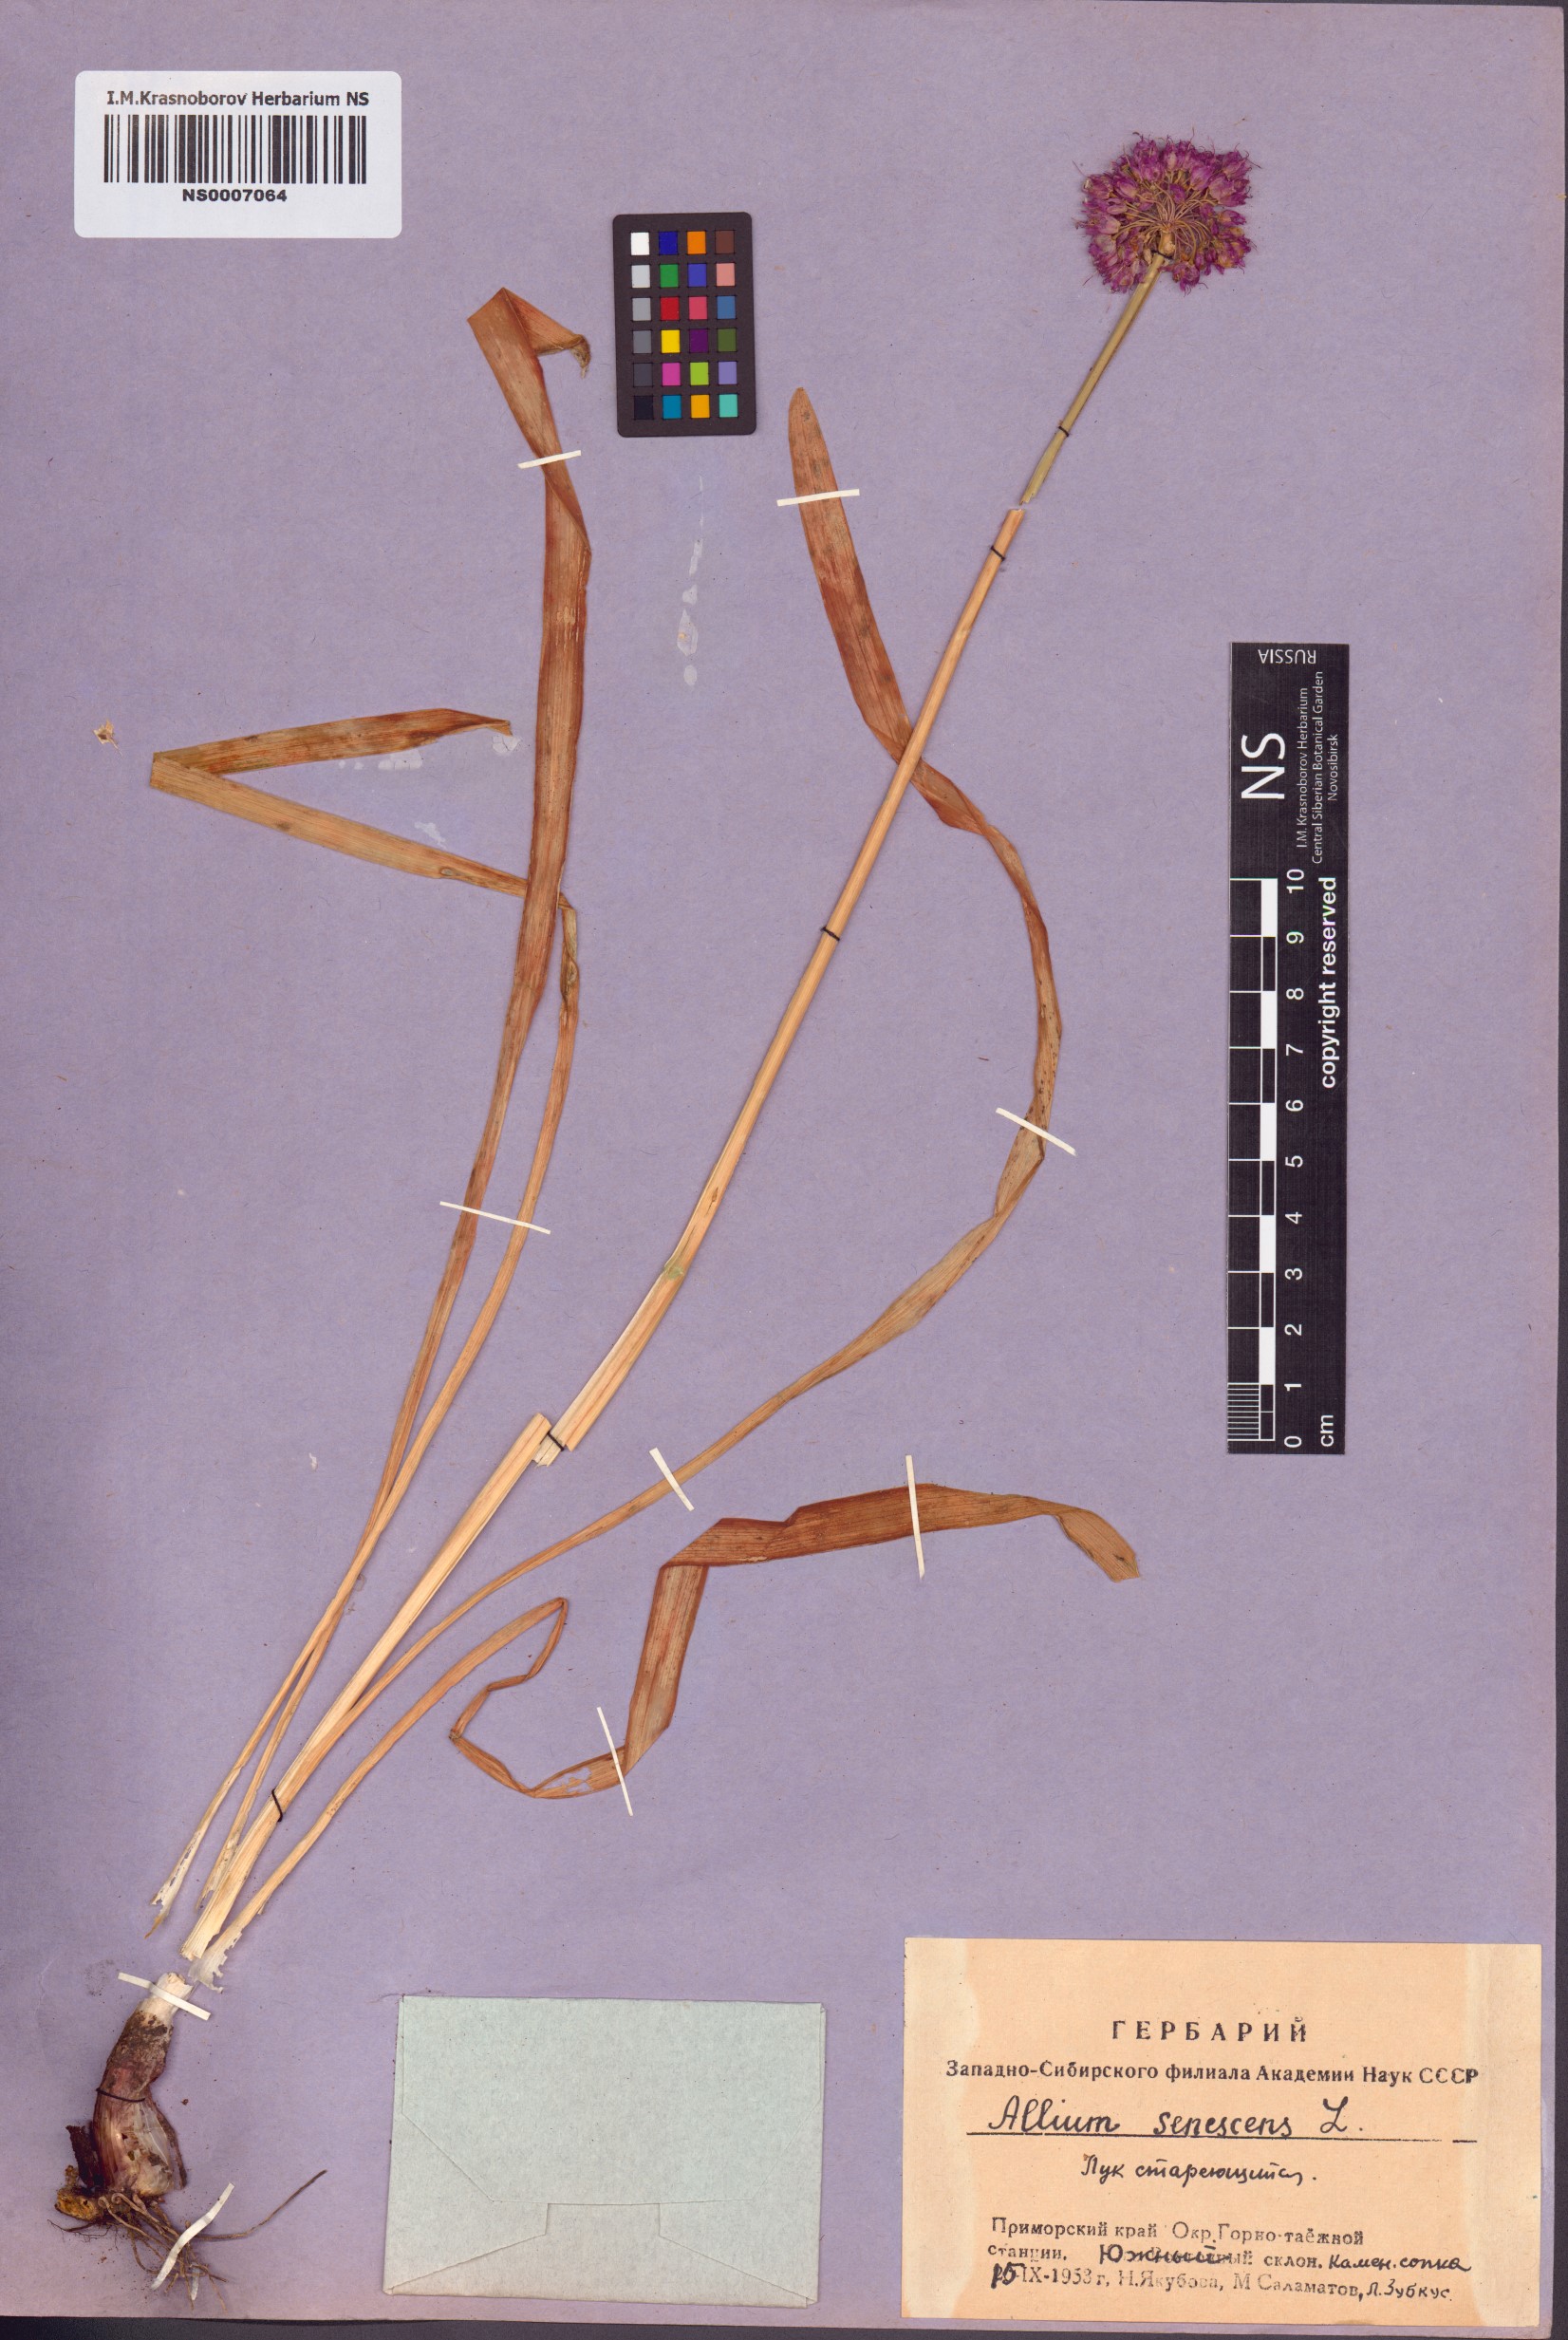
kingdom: Plantae
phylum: Tracheophyta
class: Liliopsida
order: Asparagales
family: Amaryllidaceae
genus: Allium
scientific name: Allium senescens
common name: German garlic
